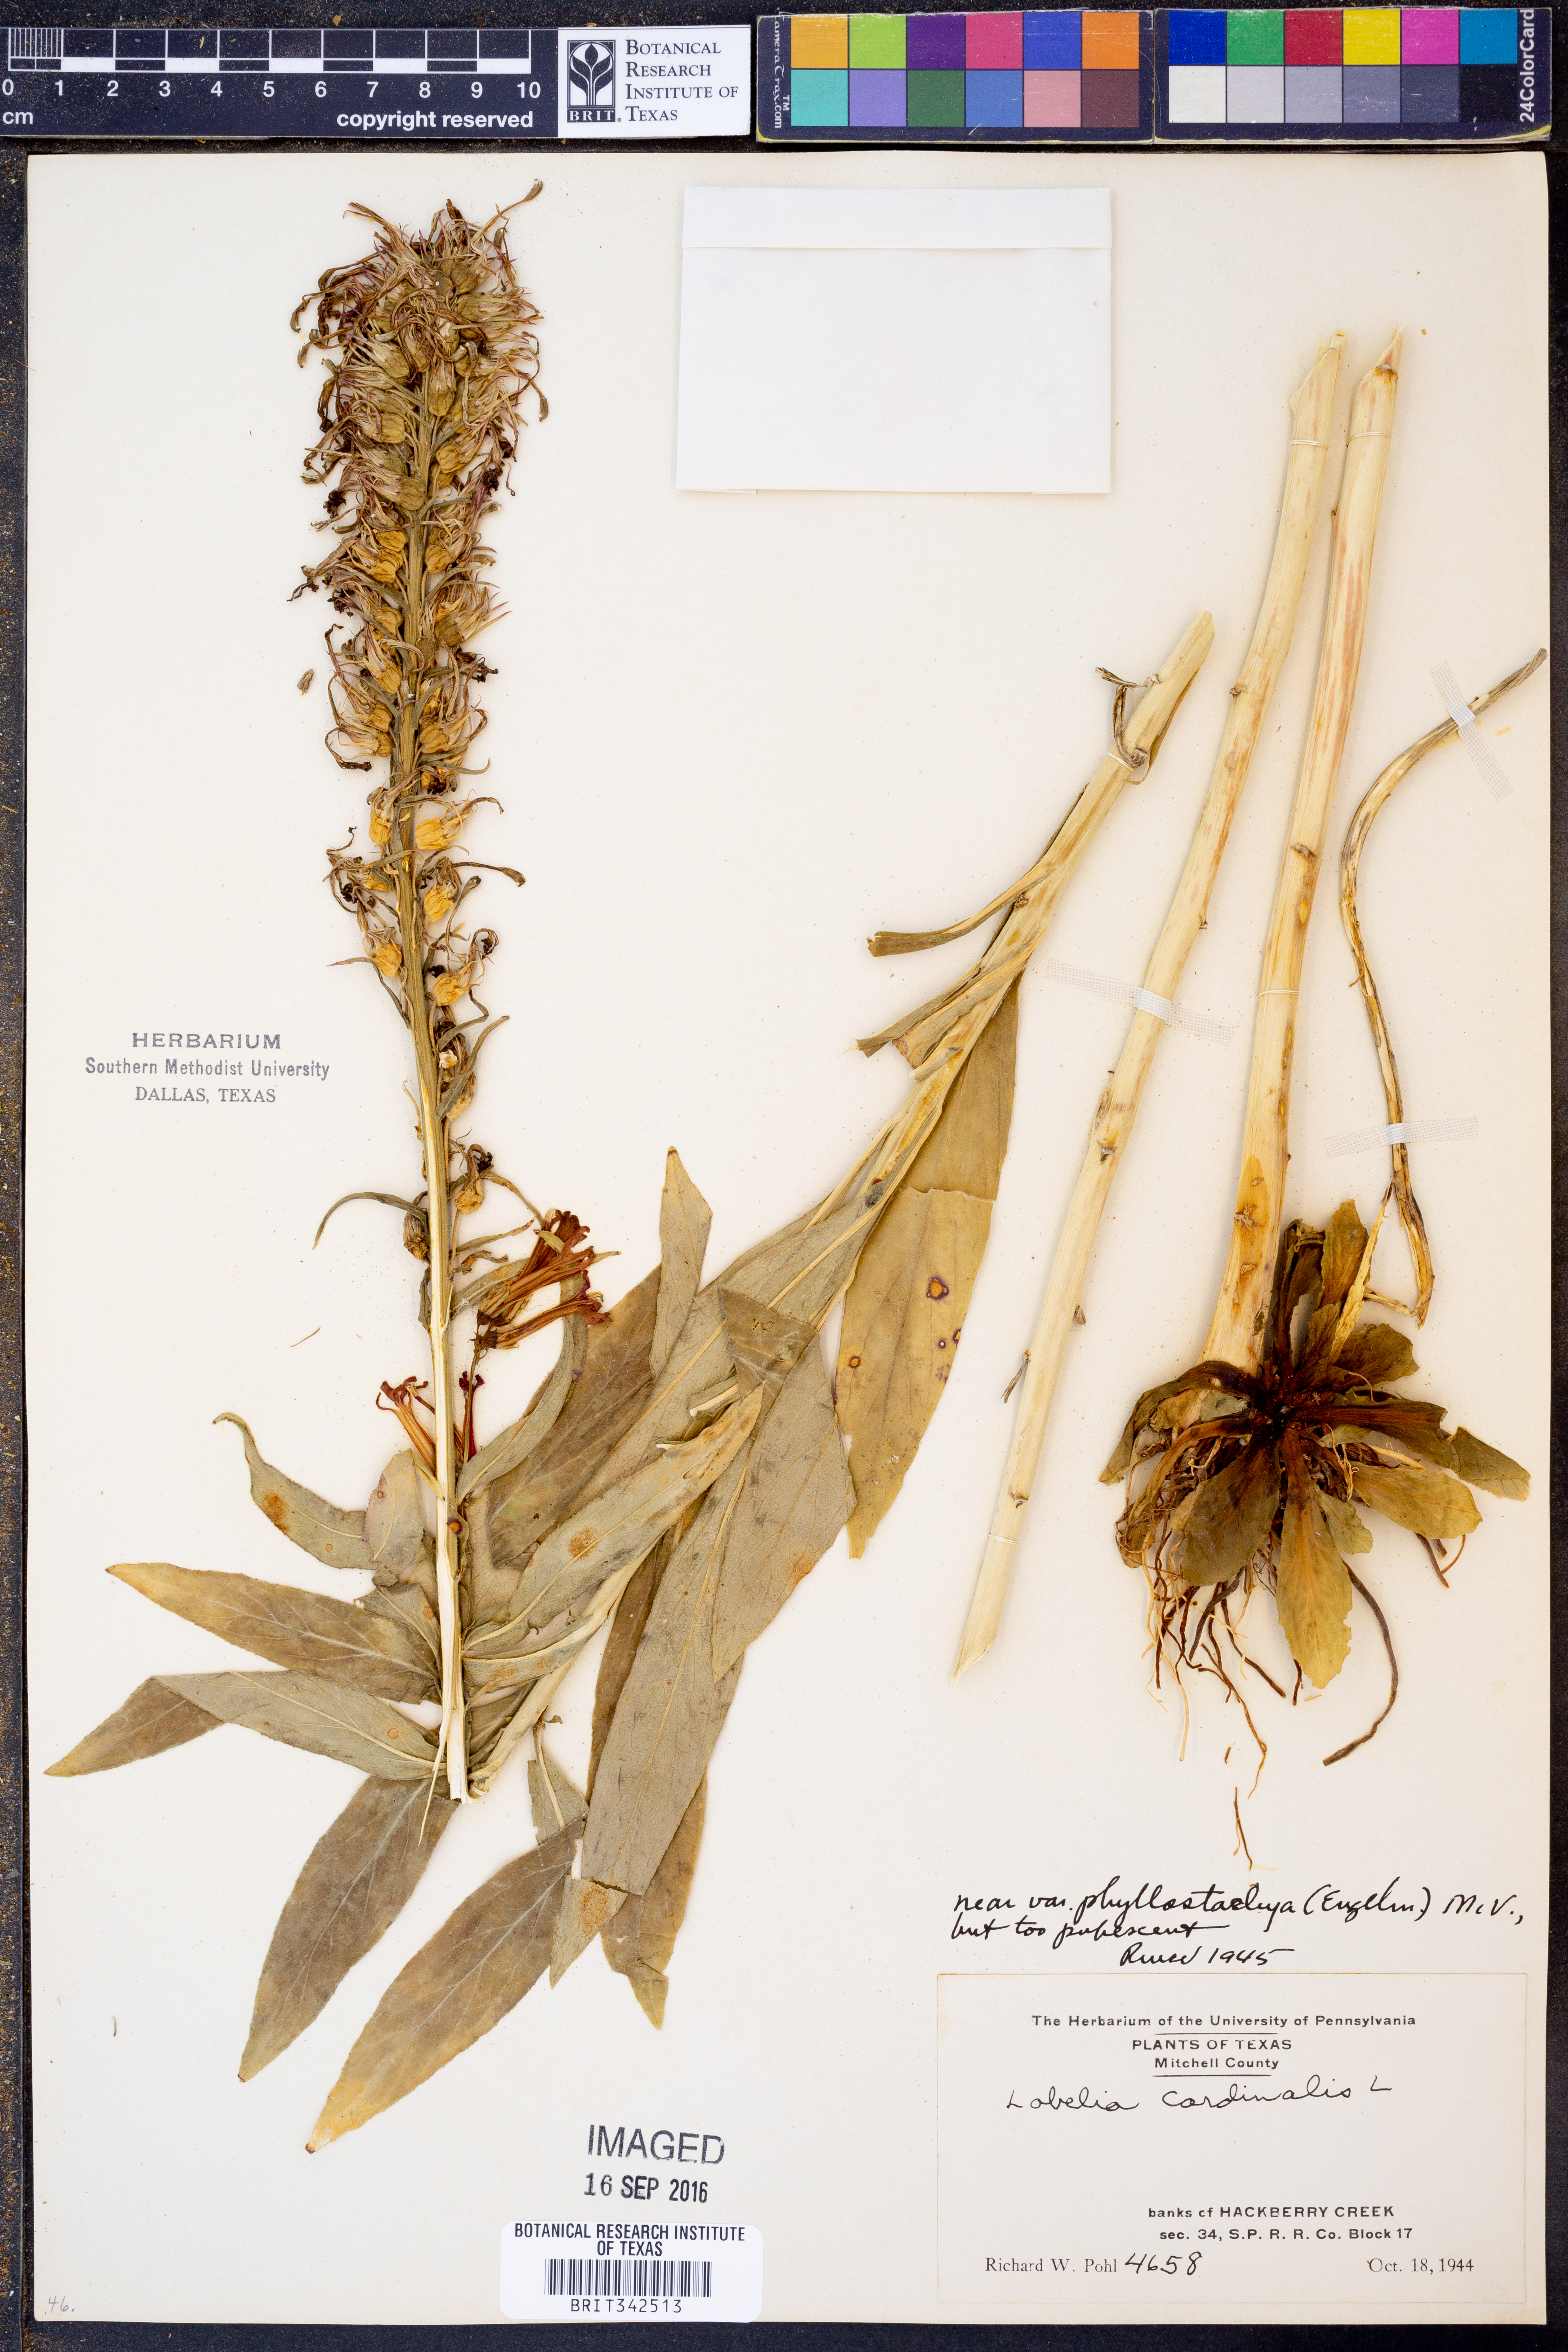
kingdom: Plantae
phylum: Tracheophyta
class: Magnoliopsida
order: Asterales
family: Campanulaceae
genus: Lobelia
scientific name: Lobelia cardinalis
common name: Cardinal flower
